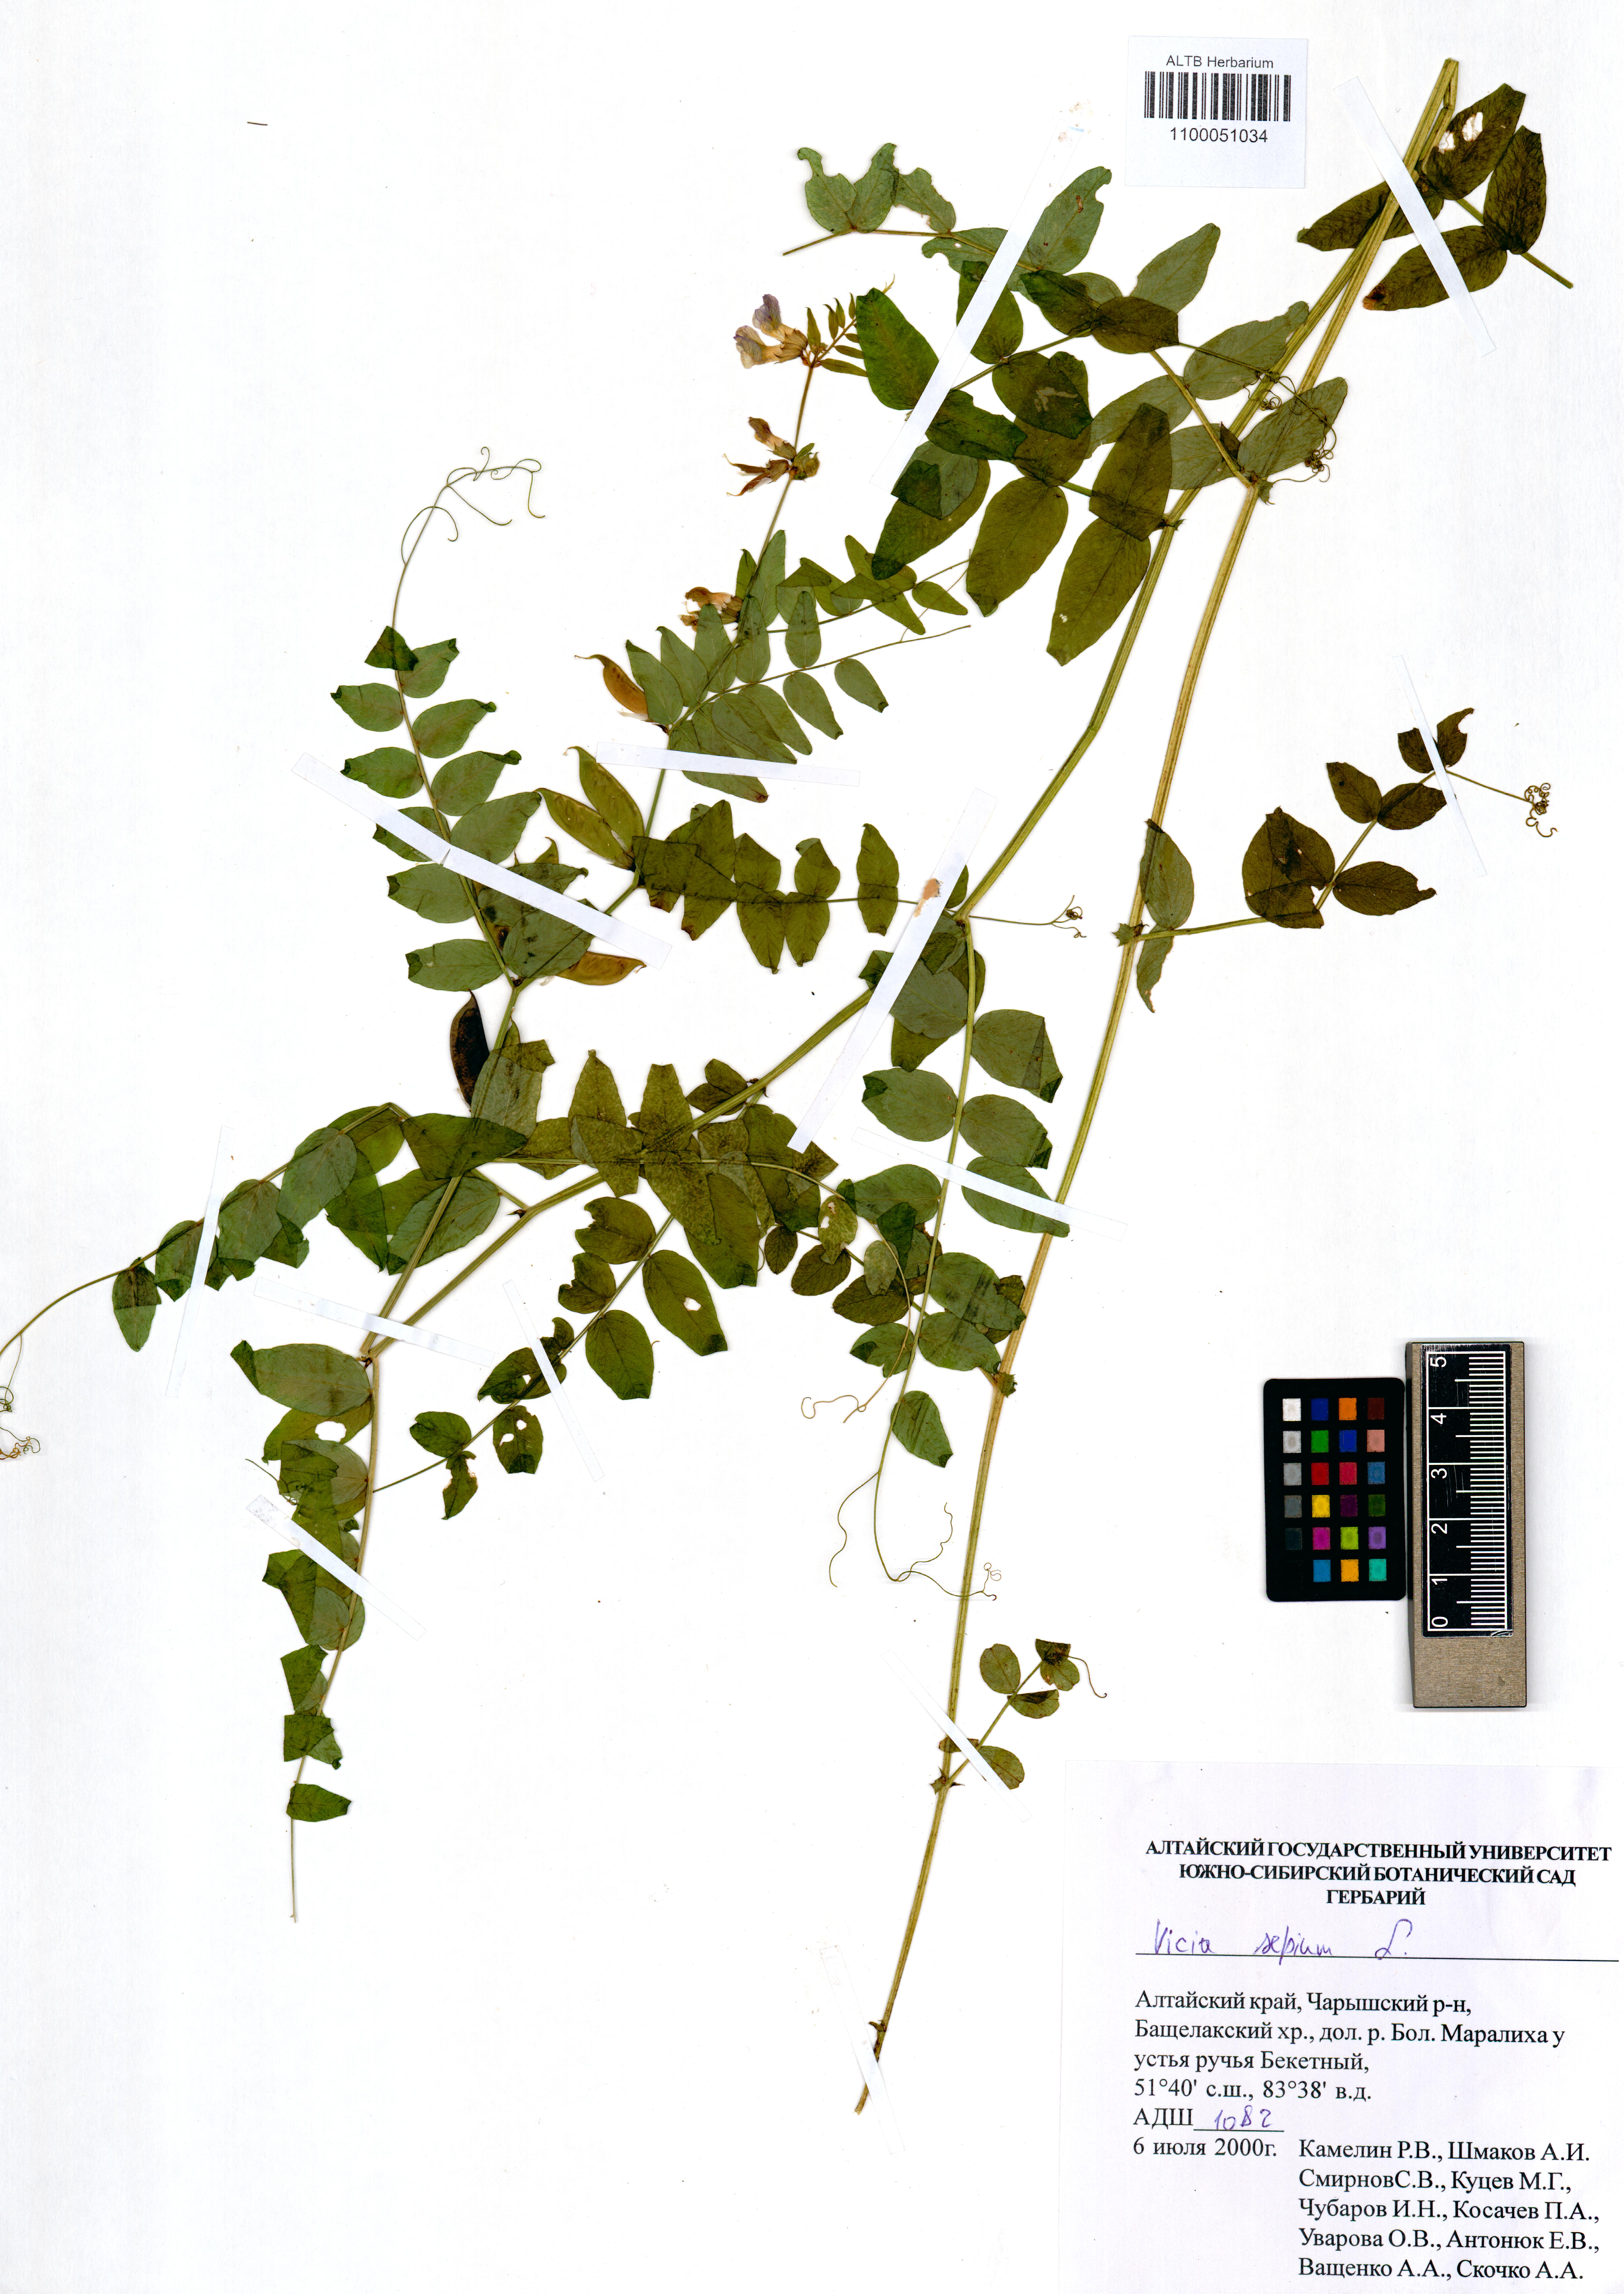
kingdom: Plantae
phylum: Tracheophyta
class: Magnoliopsida
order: Fabales
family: Fabaceae
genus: Vicia
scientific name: Vicia sepium
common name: Bush vetch
